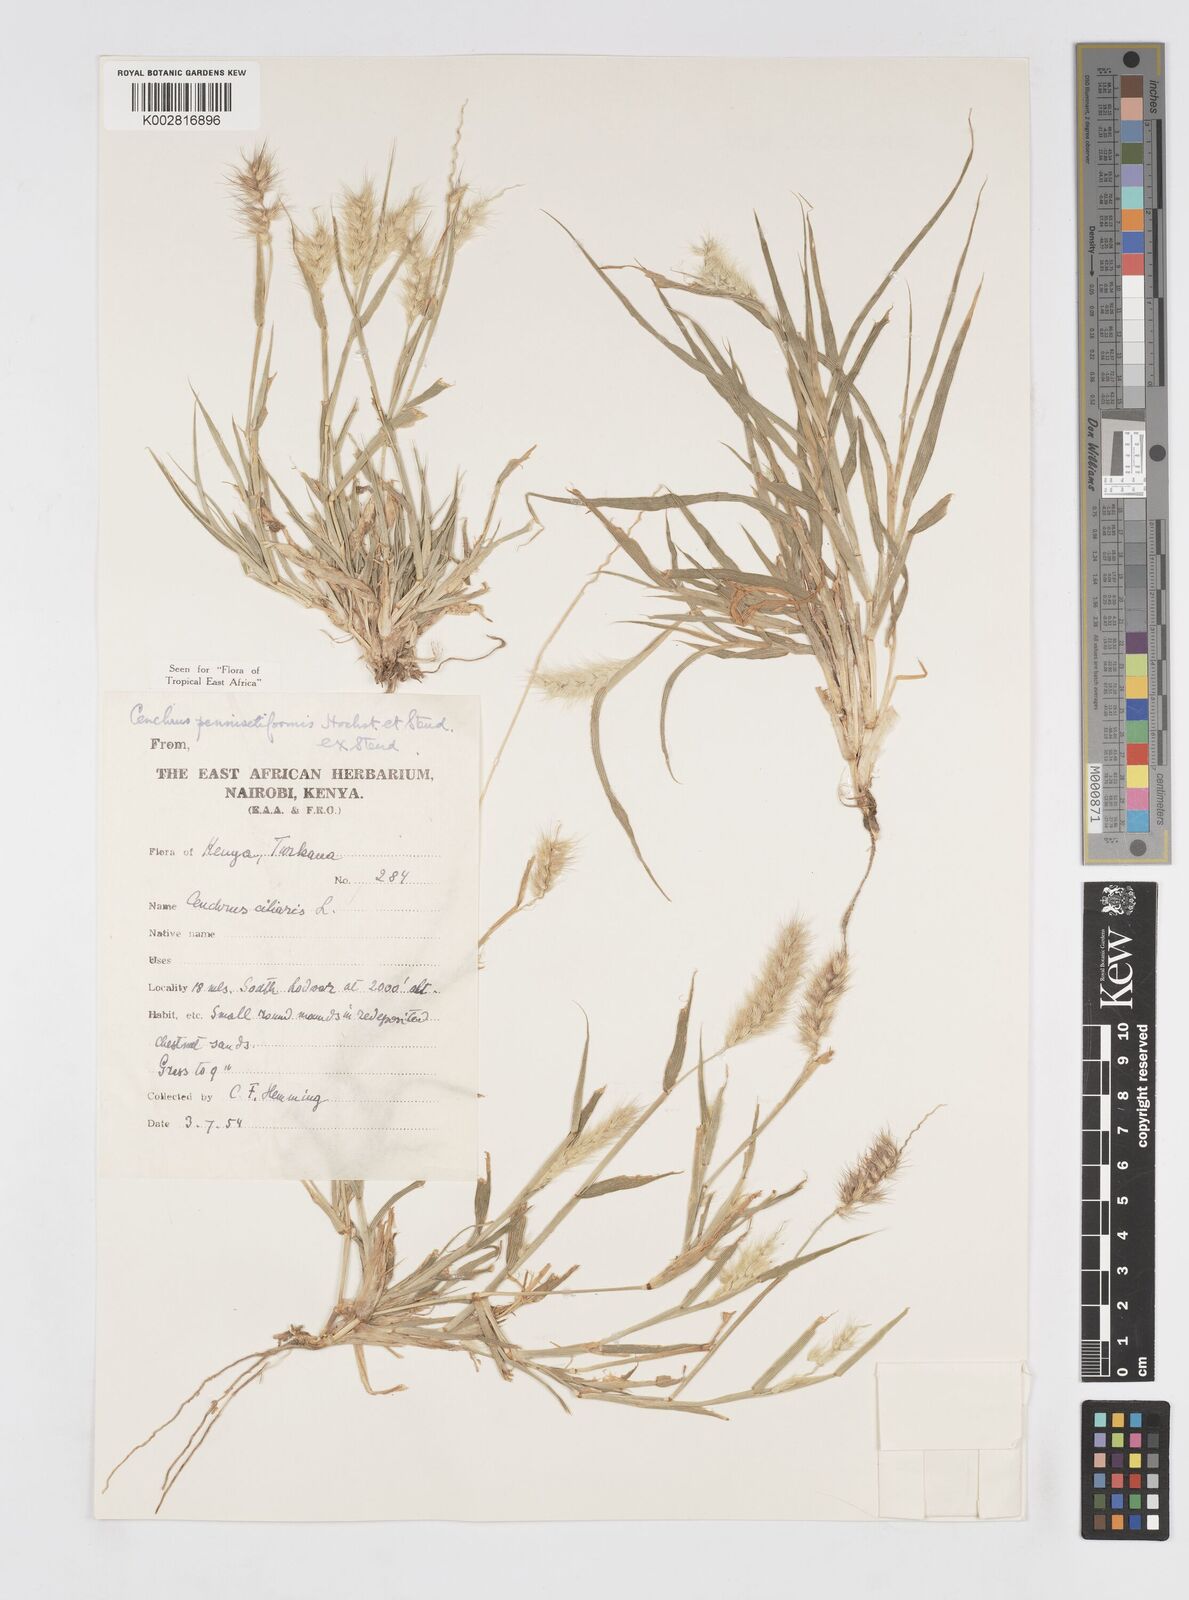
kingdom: Plantae
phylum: Tracheophyta
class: Liliopsida
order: Poales
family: Poaceae
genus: Cenchrus
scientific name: Cenchrus pennisetiformis
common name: Cloncurry
